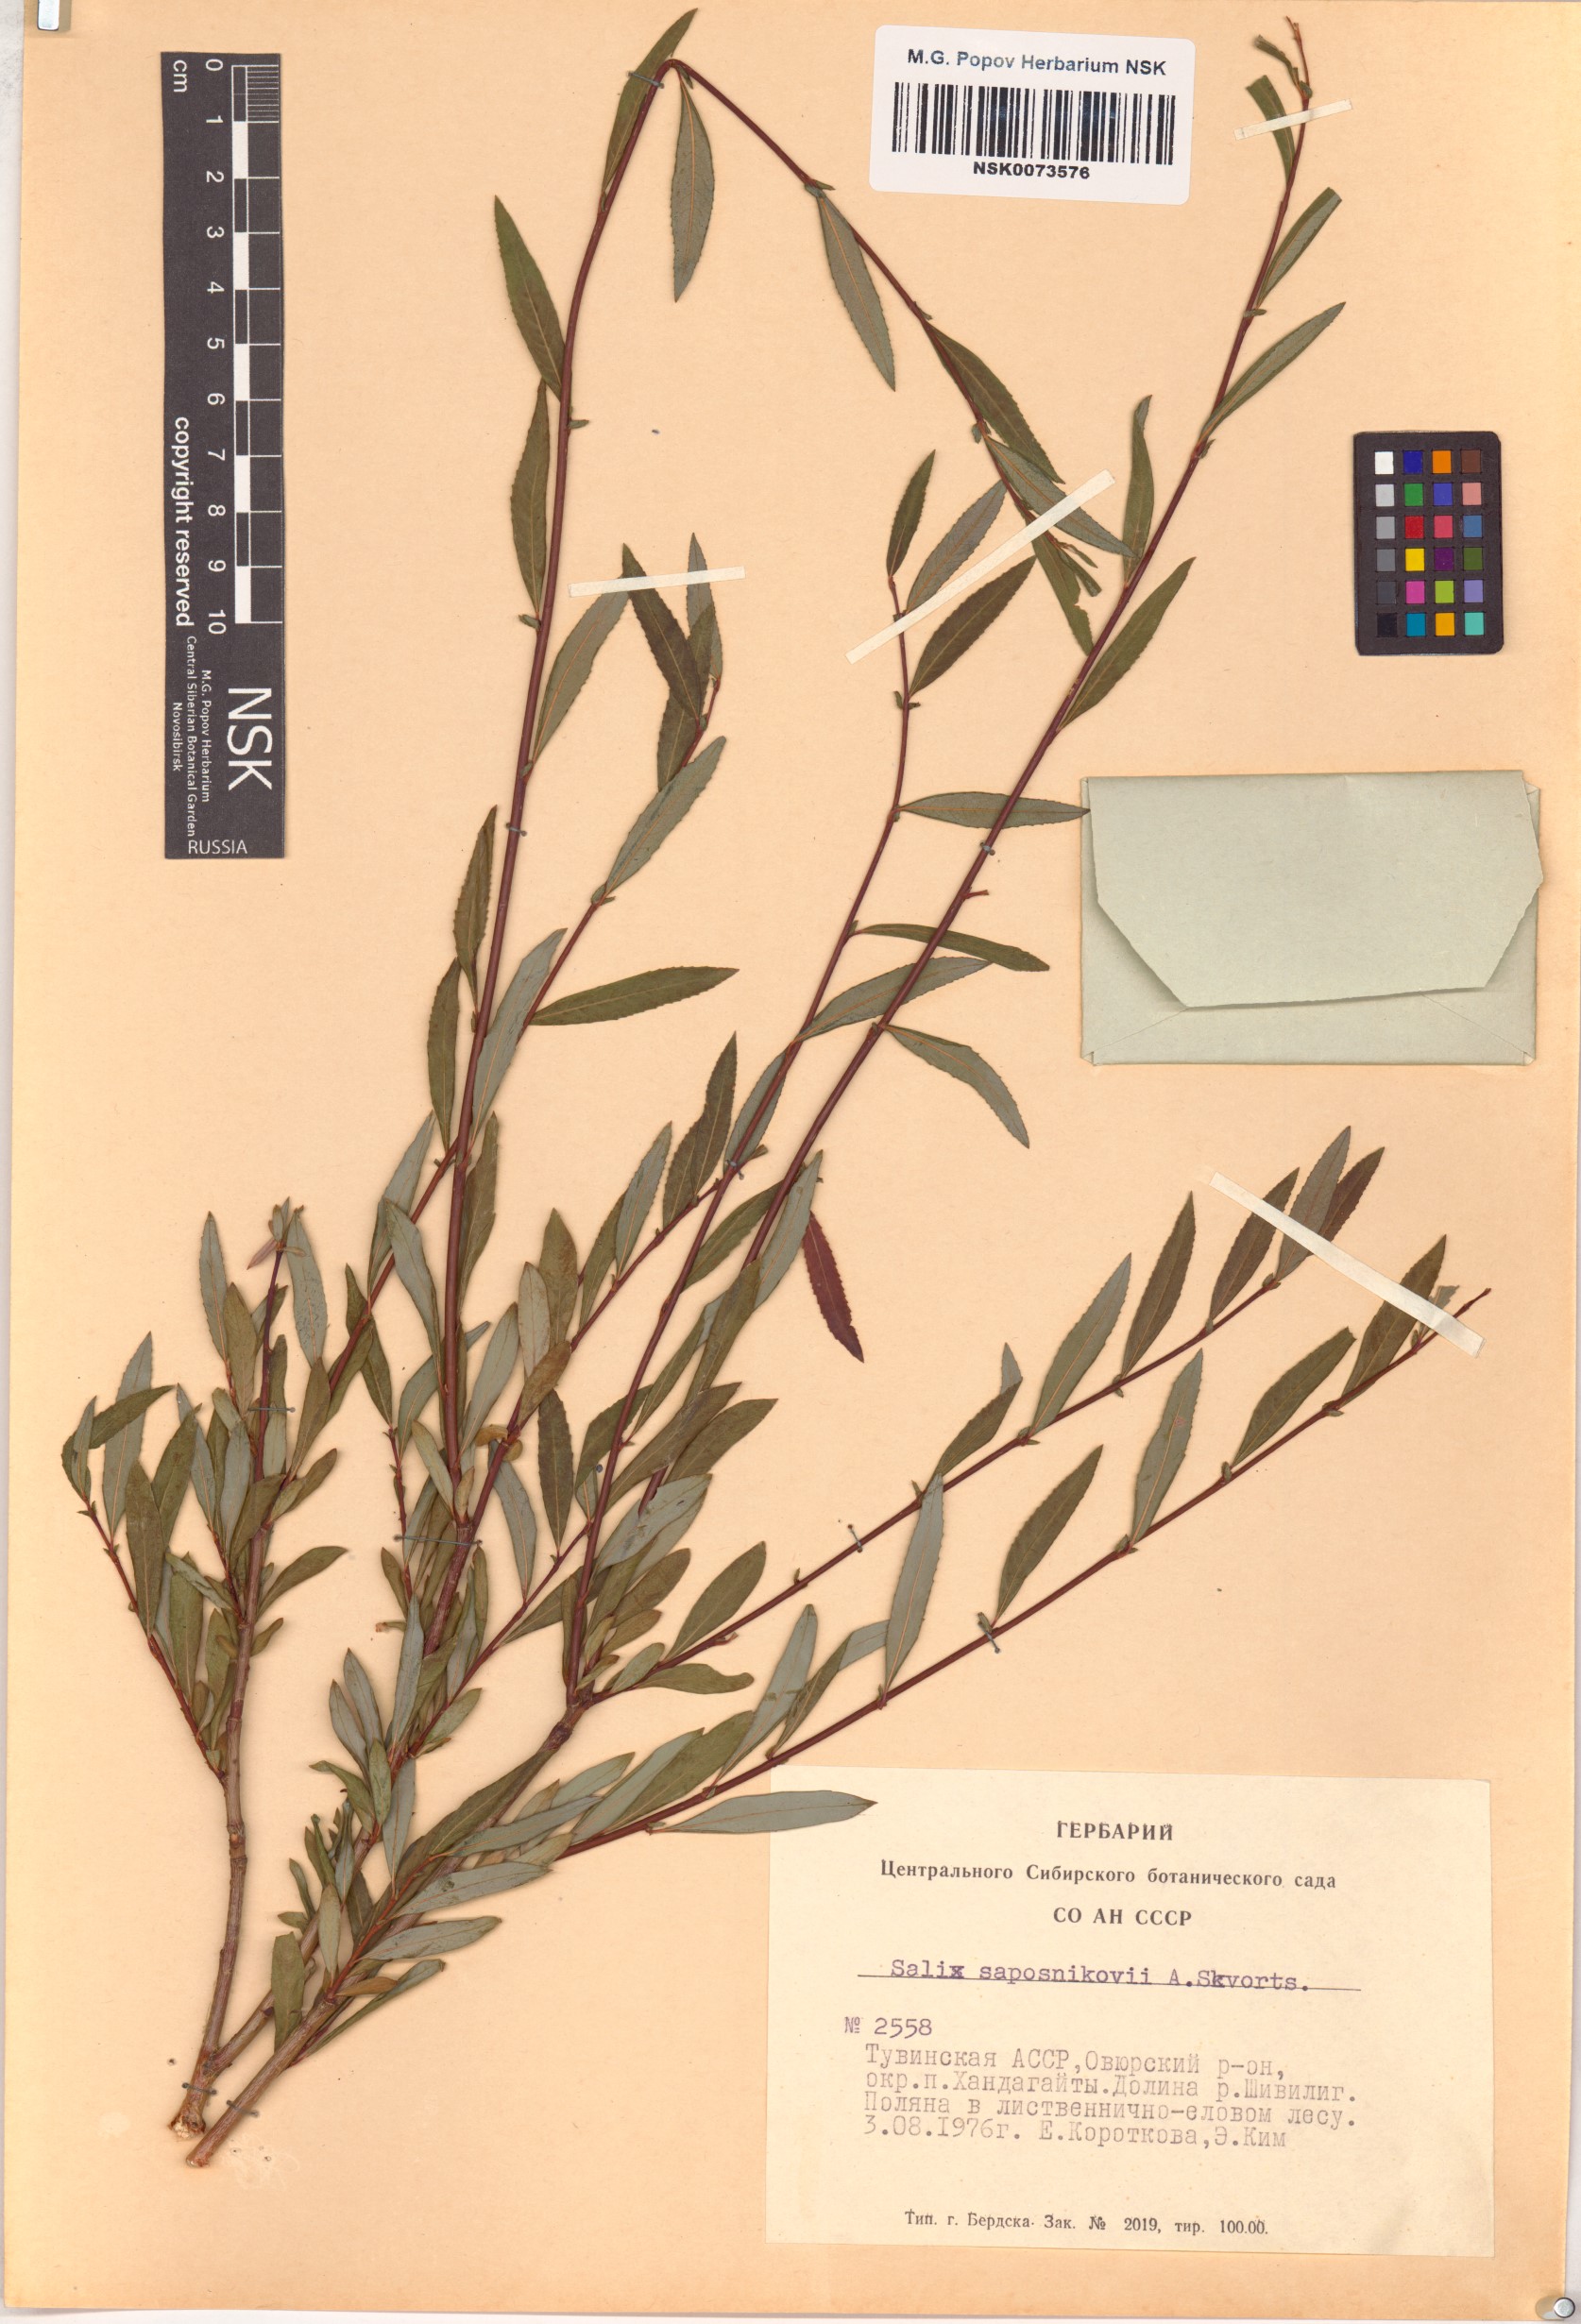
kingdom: Plantae
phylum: Tracheophyta
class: Magnoliopsida
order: Malpighiales
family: Salicaceae
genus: Salix
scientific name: Salix saposhnikovii
